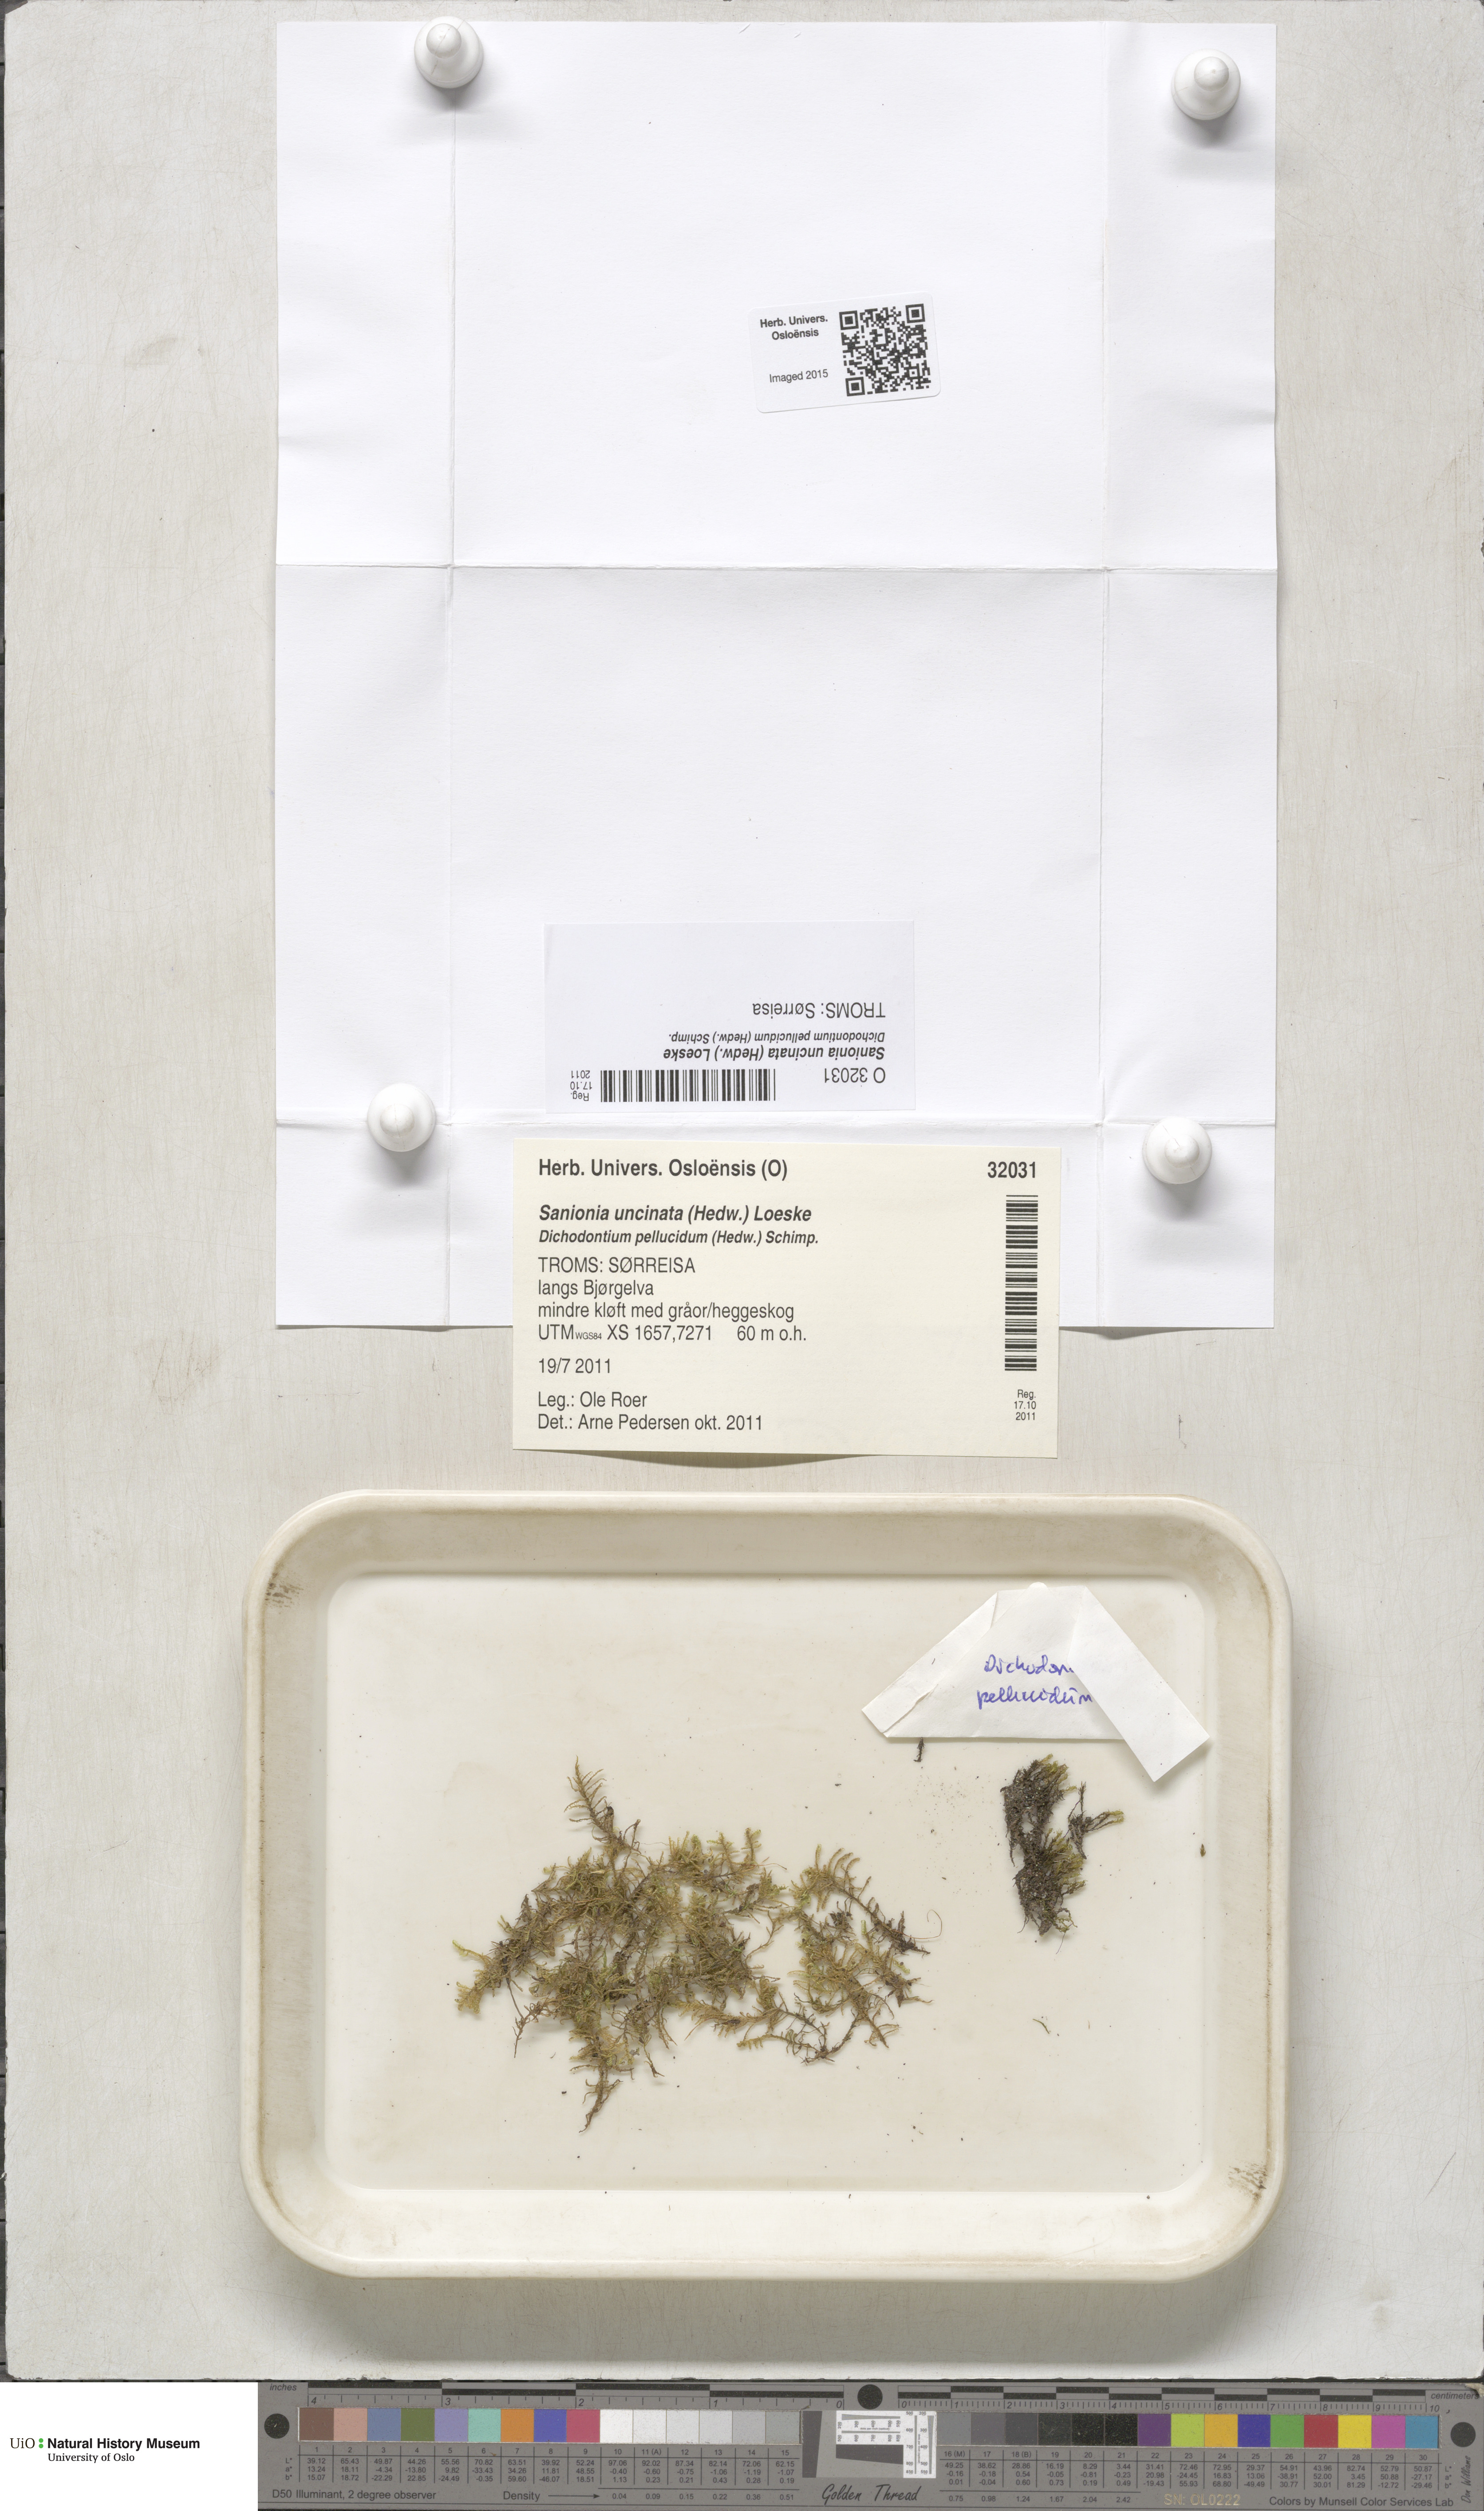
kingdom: Plantae
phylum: Bryophyta
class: Bryopsida
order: Hypnales
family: Scorpidiaceae
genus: Sanionia
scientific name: Sanionia uncinata
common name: Sickle moss
